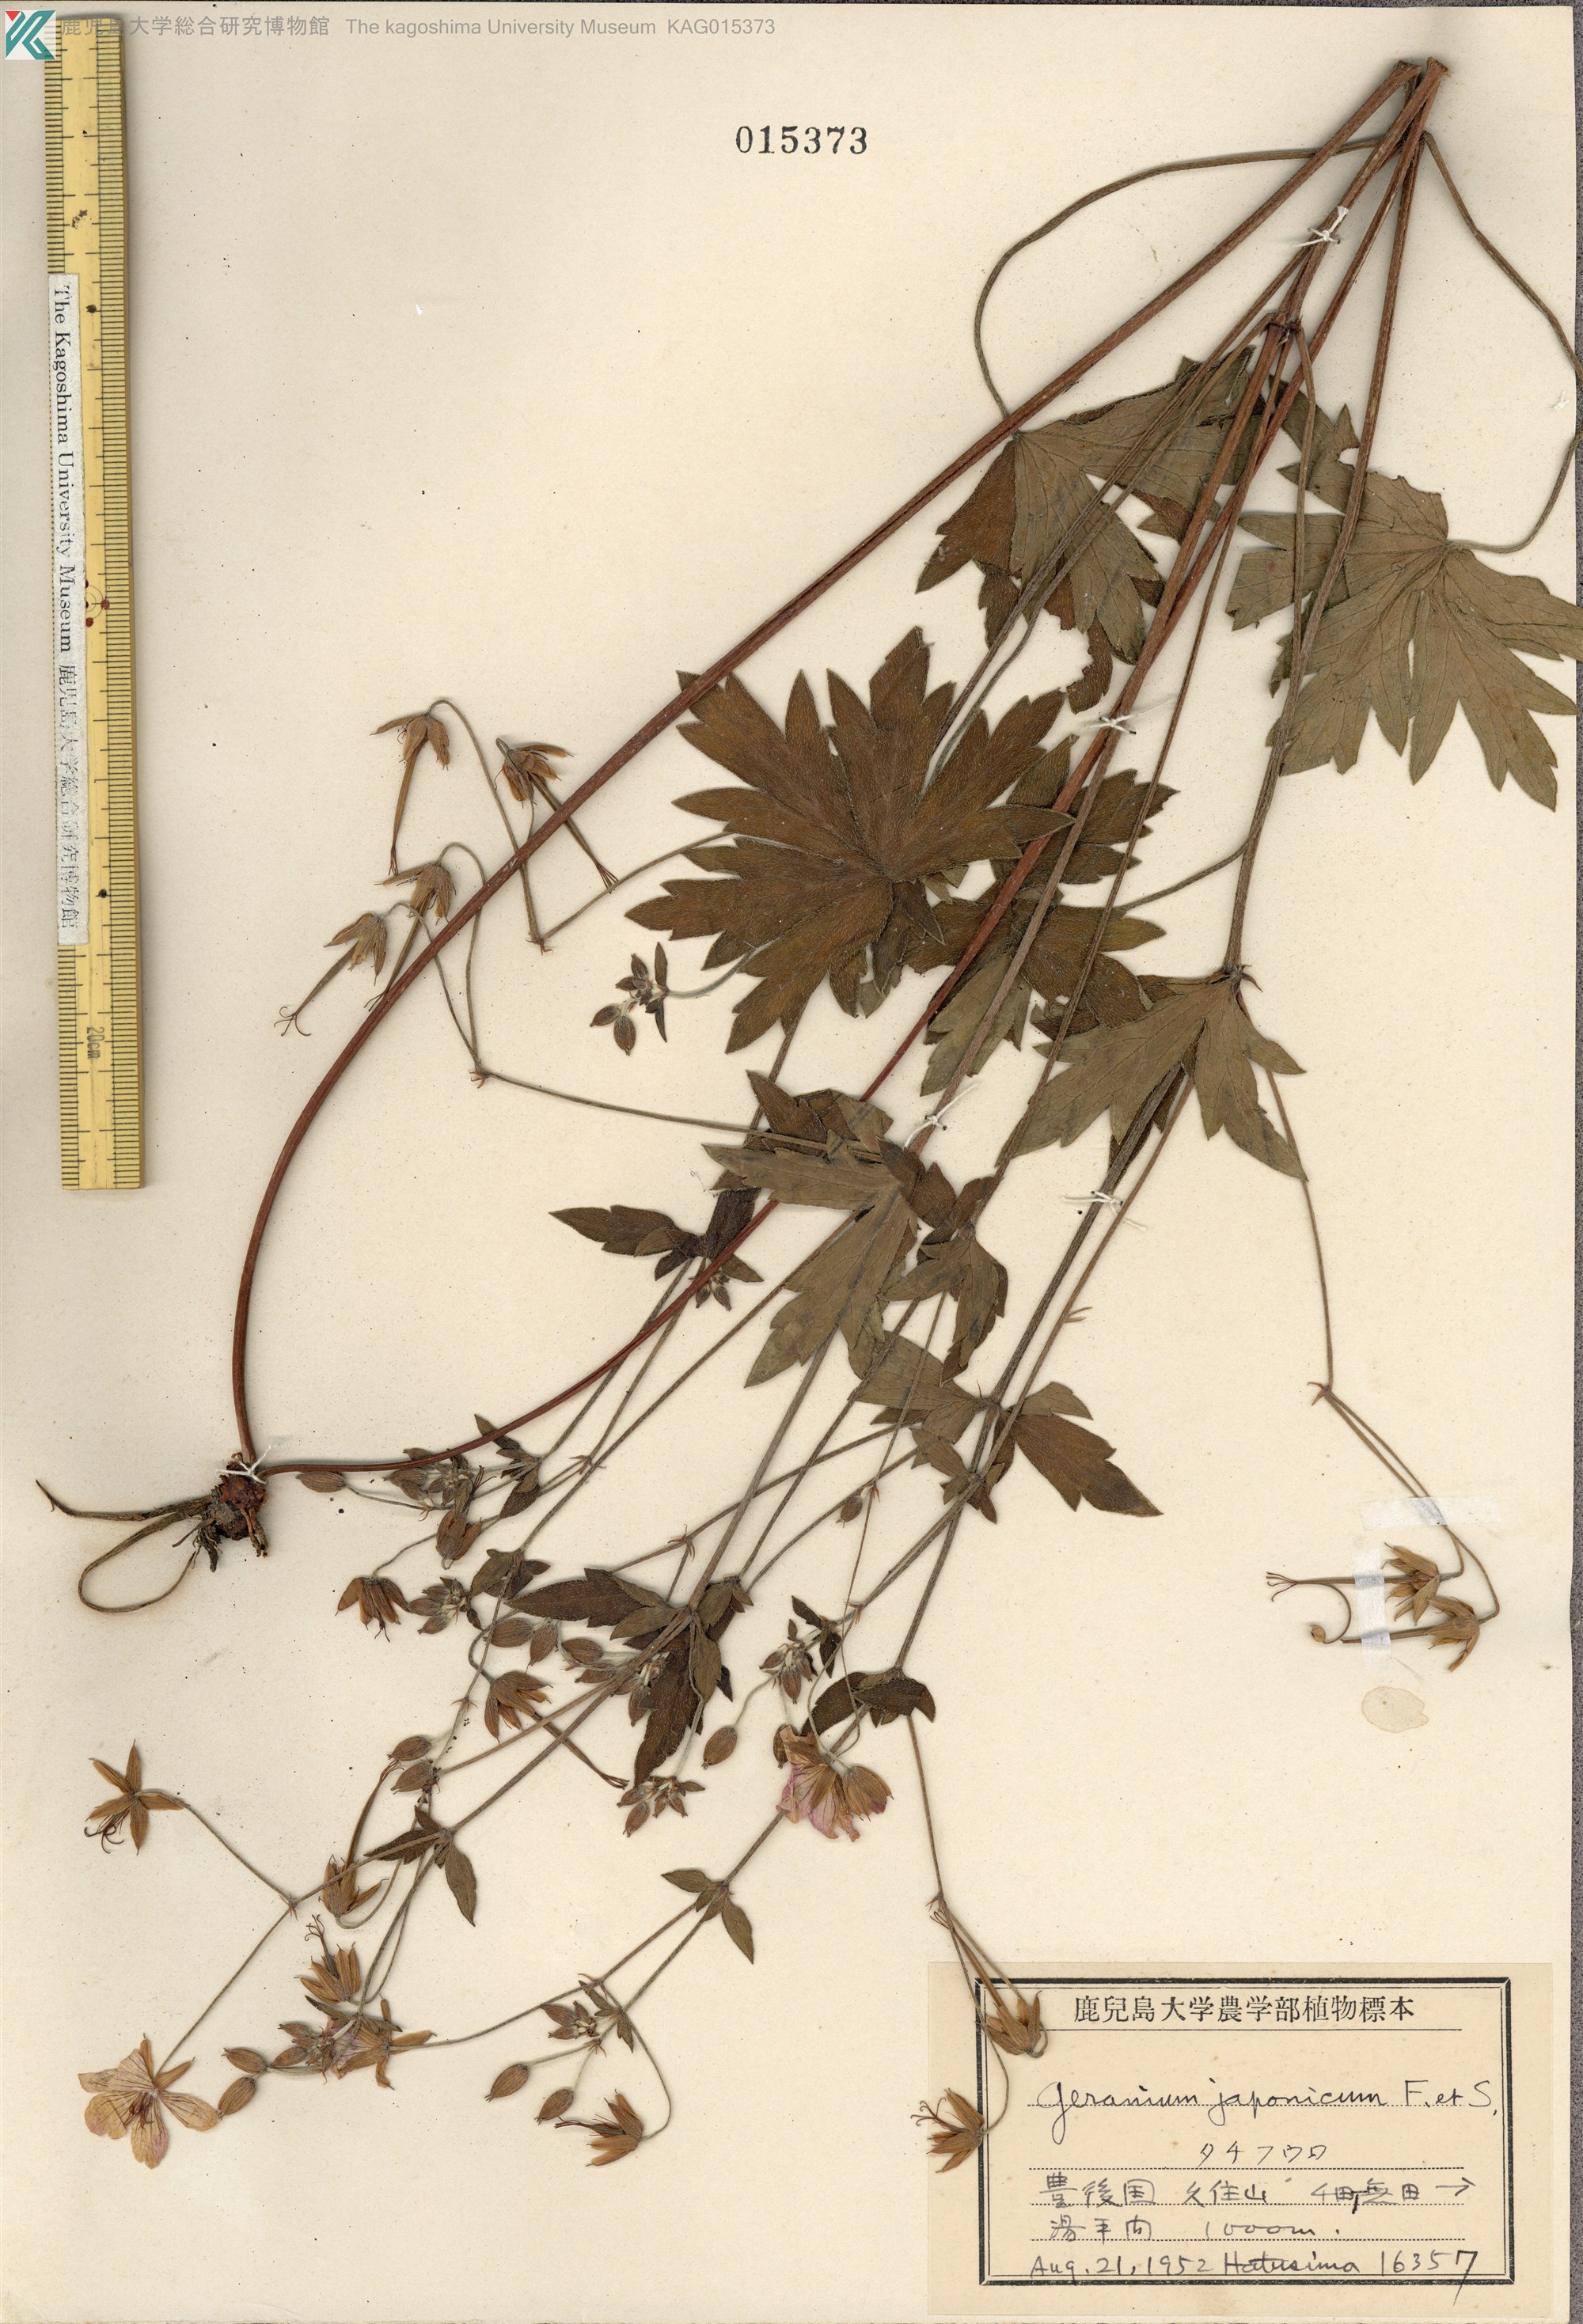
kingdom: Plantae
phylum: Tracheophyta
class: Magnoliopsida
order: Geraniales
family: Geraniaceae
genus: Geranium
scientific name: Geranium krameri
